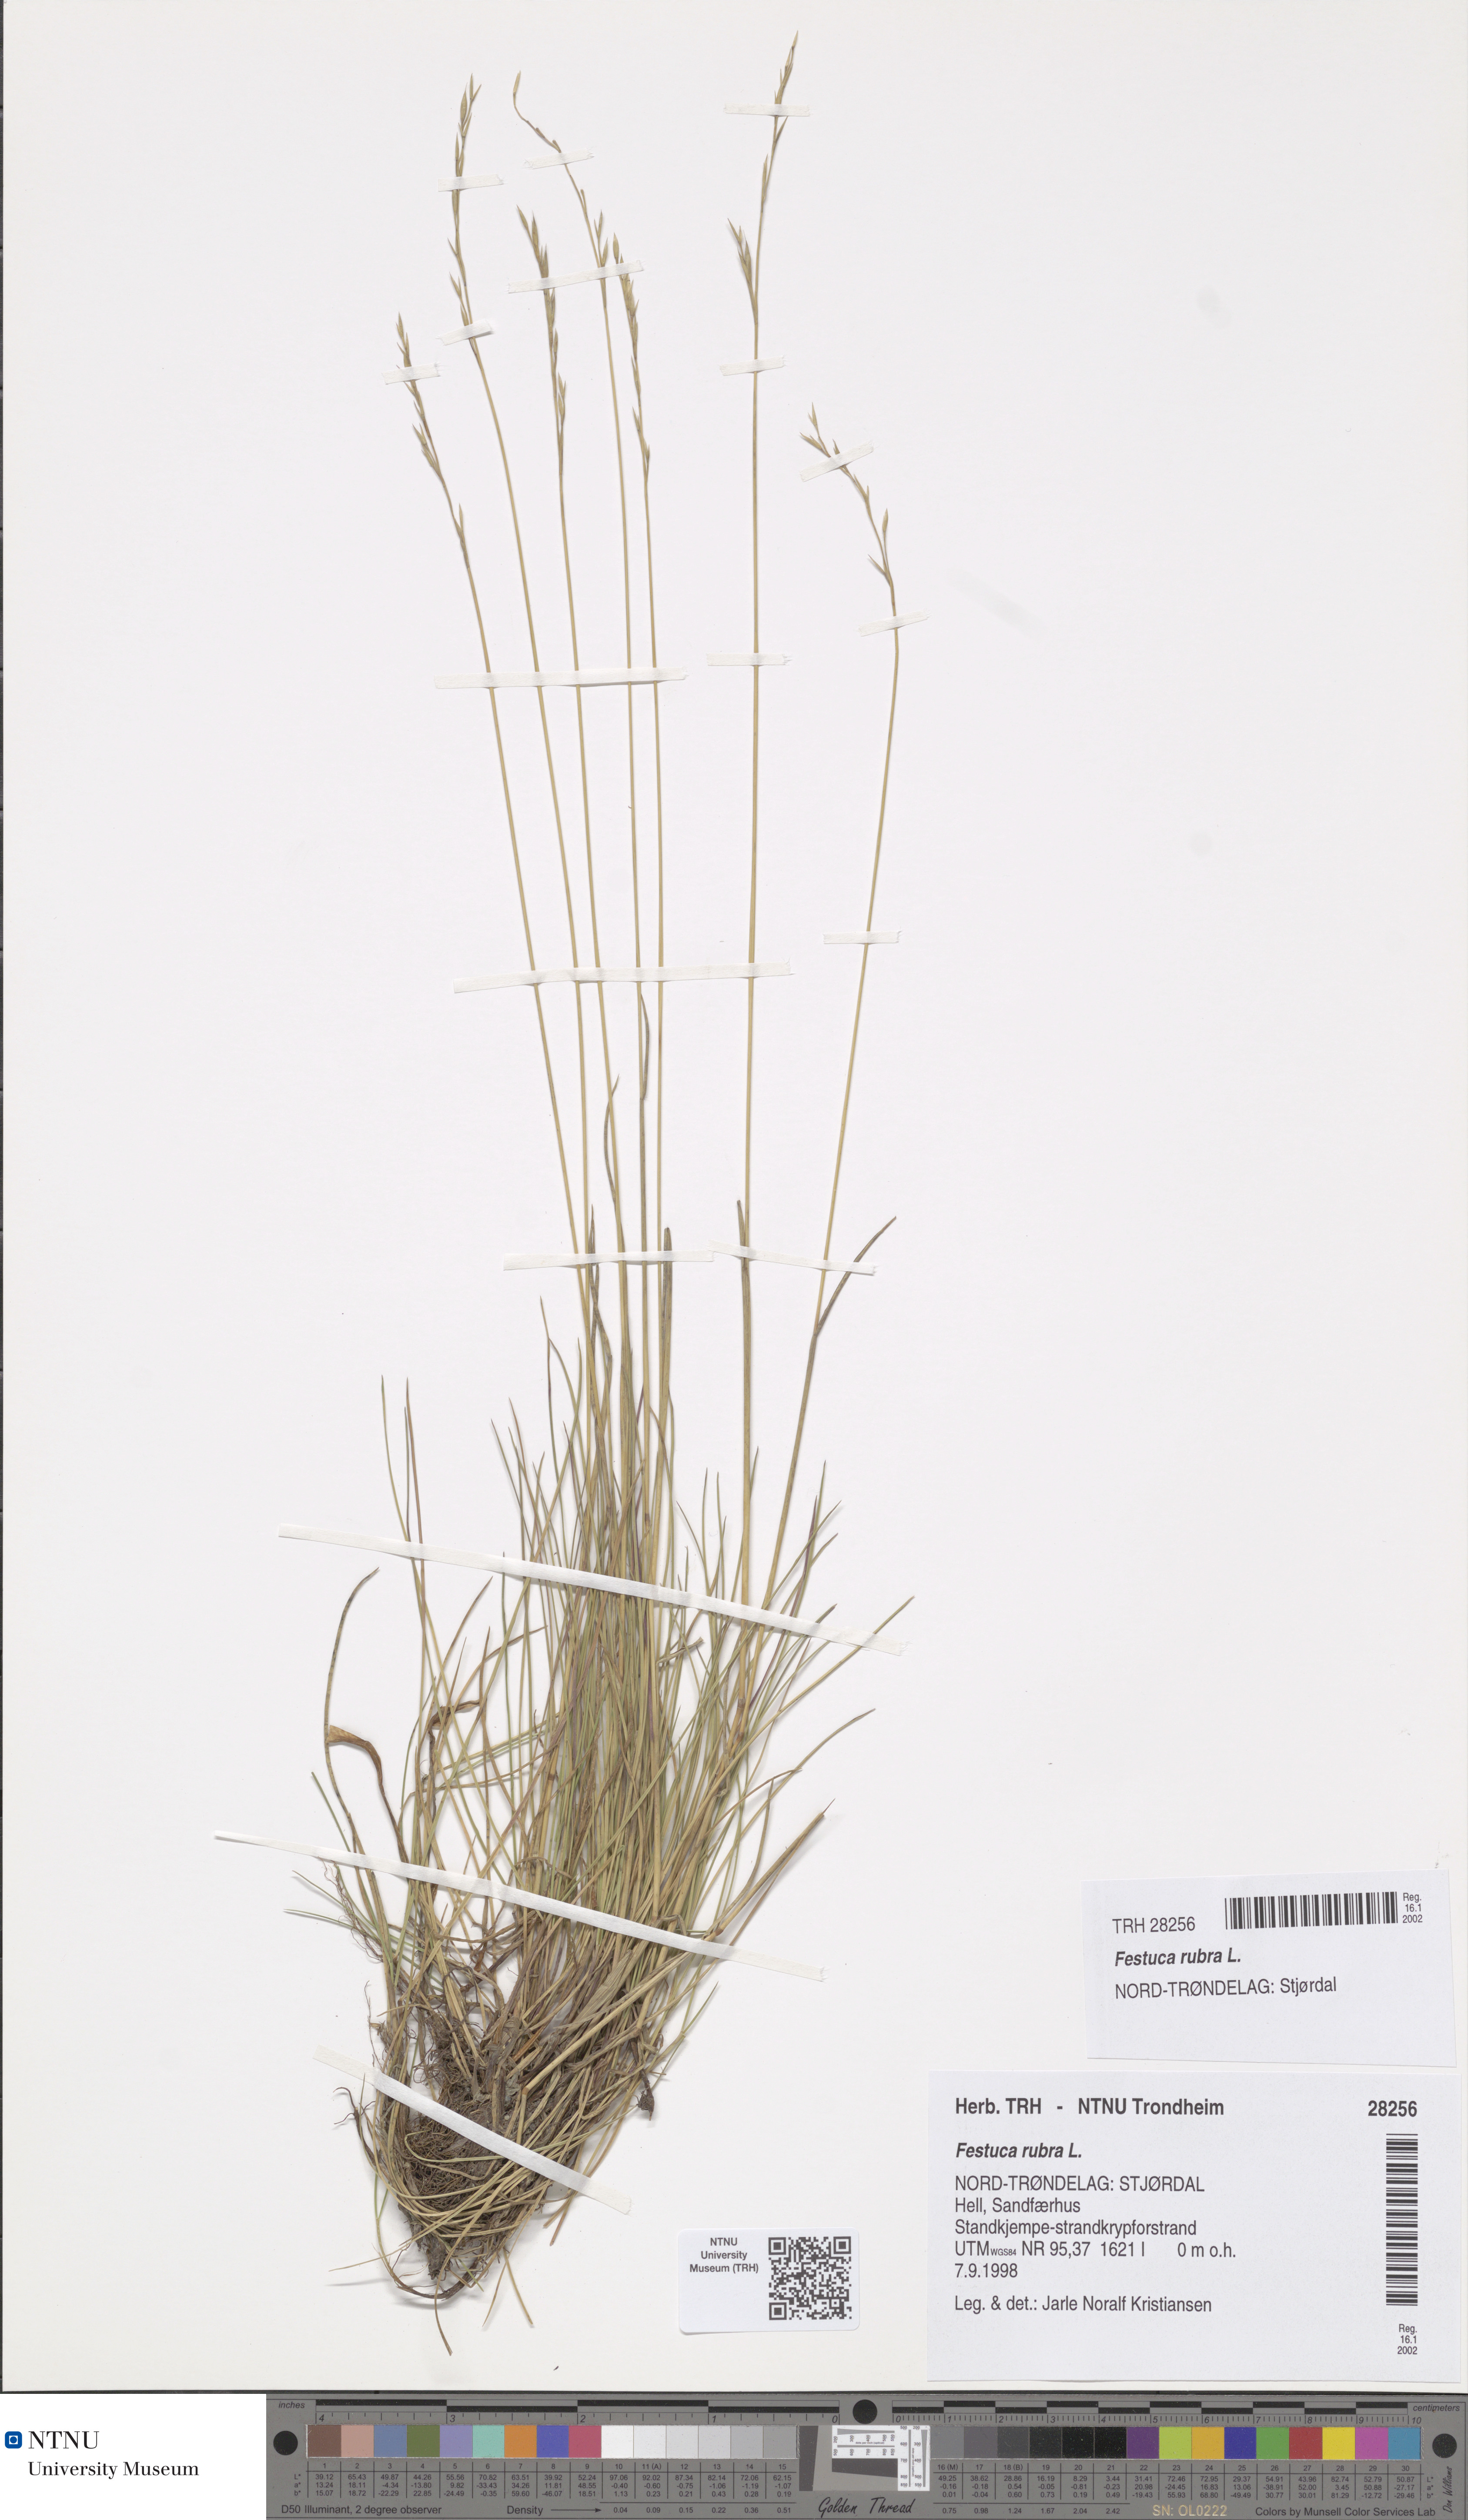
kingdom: Plantae
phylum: Tracheophyta
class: Liliopsida
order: Poales
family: Poaceae
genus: Festuca
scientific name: Festuca rubra
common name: Red fescue
